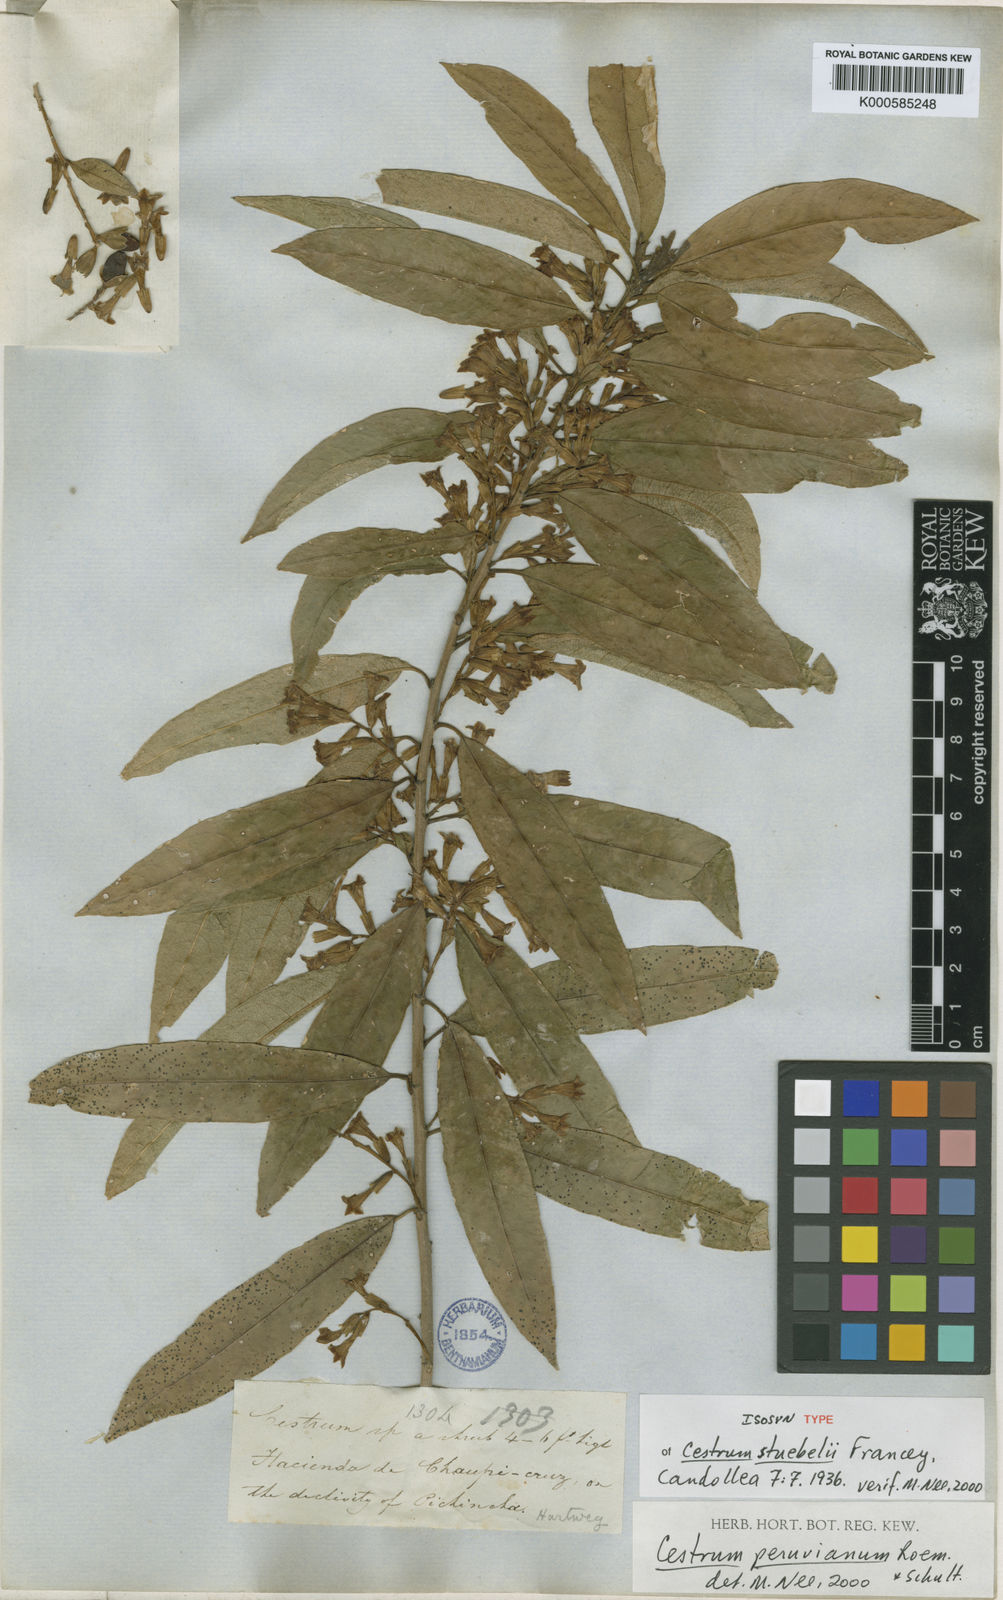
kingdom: Plantae
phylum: Tracheophyta
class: Magnoliopsida
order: Solanales
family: Solanaceae
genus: Cestrum
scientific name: Cestrum stuebelii
